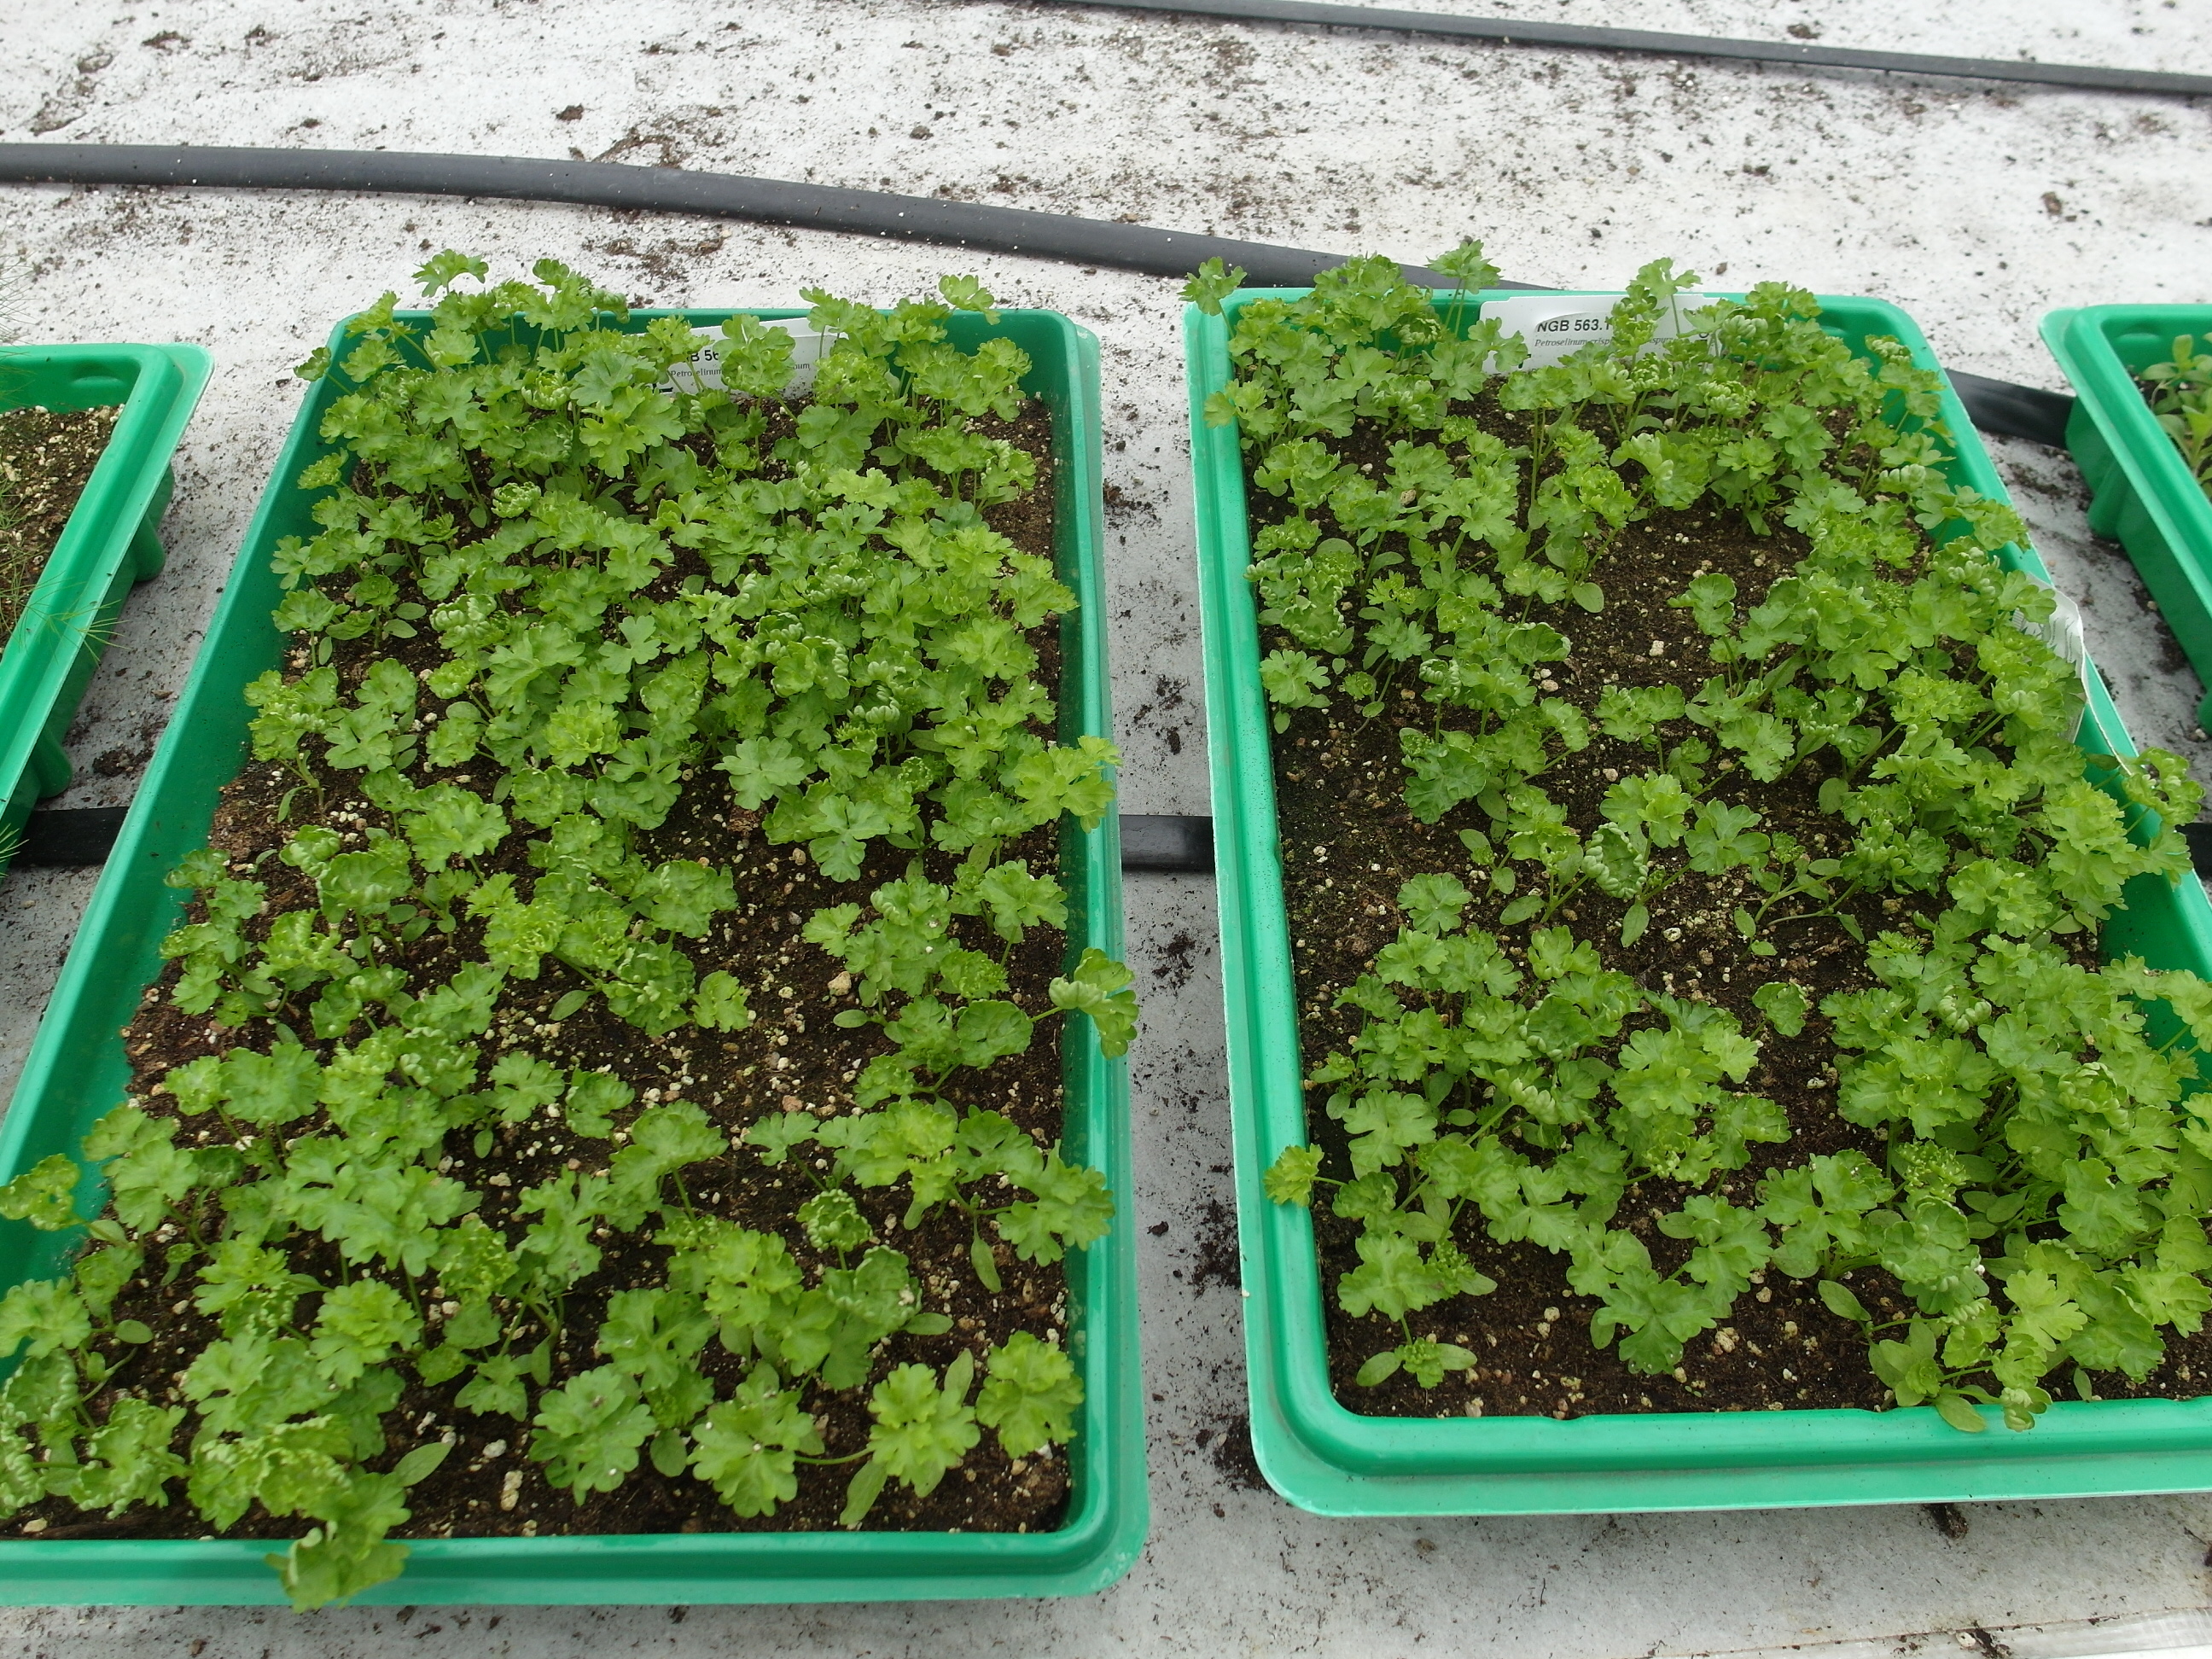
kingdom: Plantae
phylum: Tracheophyta
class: Magnoliopsida
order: Apiales
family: Apiaceae
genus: Petroselinum
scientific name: Petroselinum crispum
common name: Parsley
